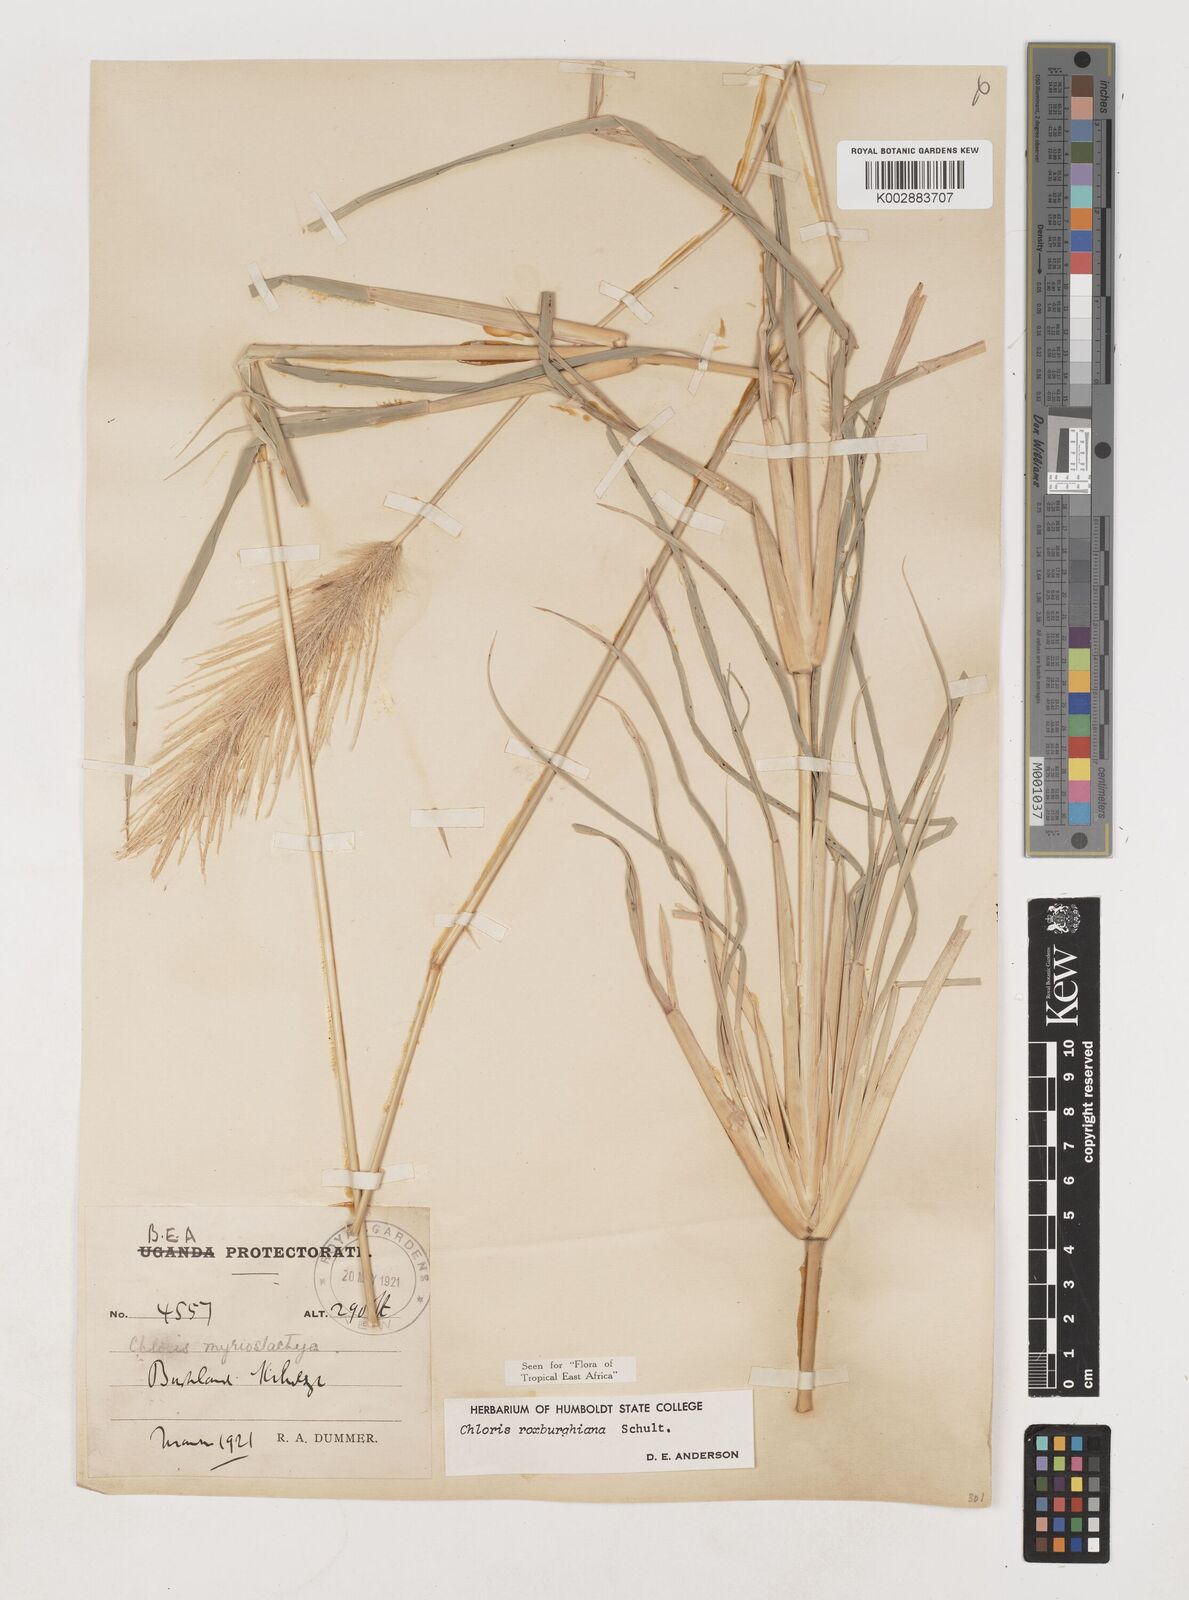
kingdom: Plantae
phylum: Tracheophyta
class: Liliopsida
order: Poales
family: Poaceae
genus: Tetrapogon
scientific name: Tetrapogon roxburghiana
